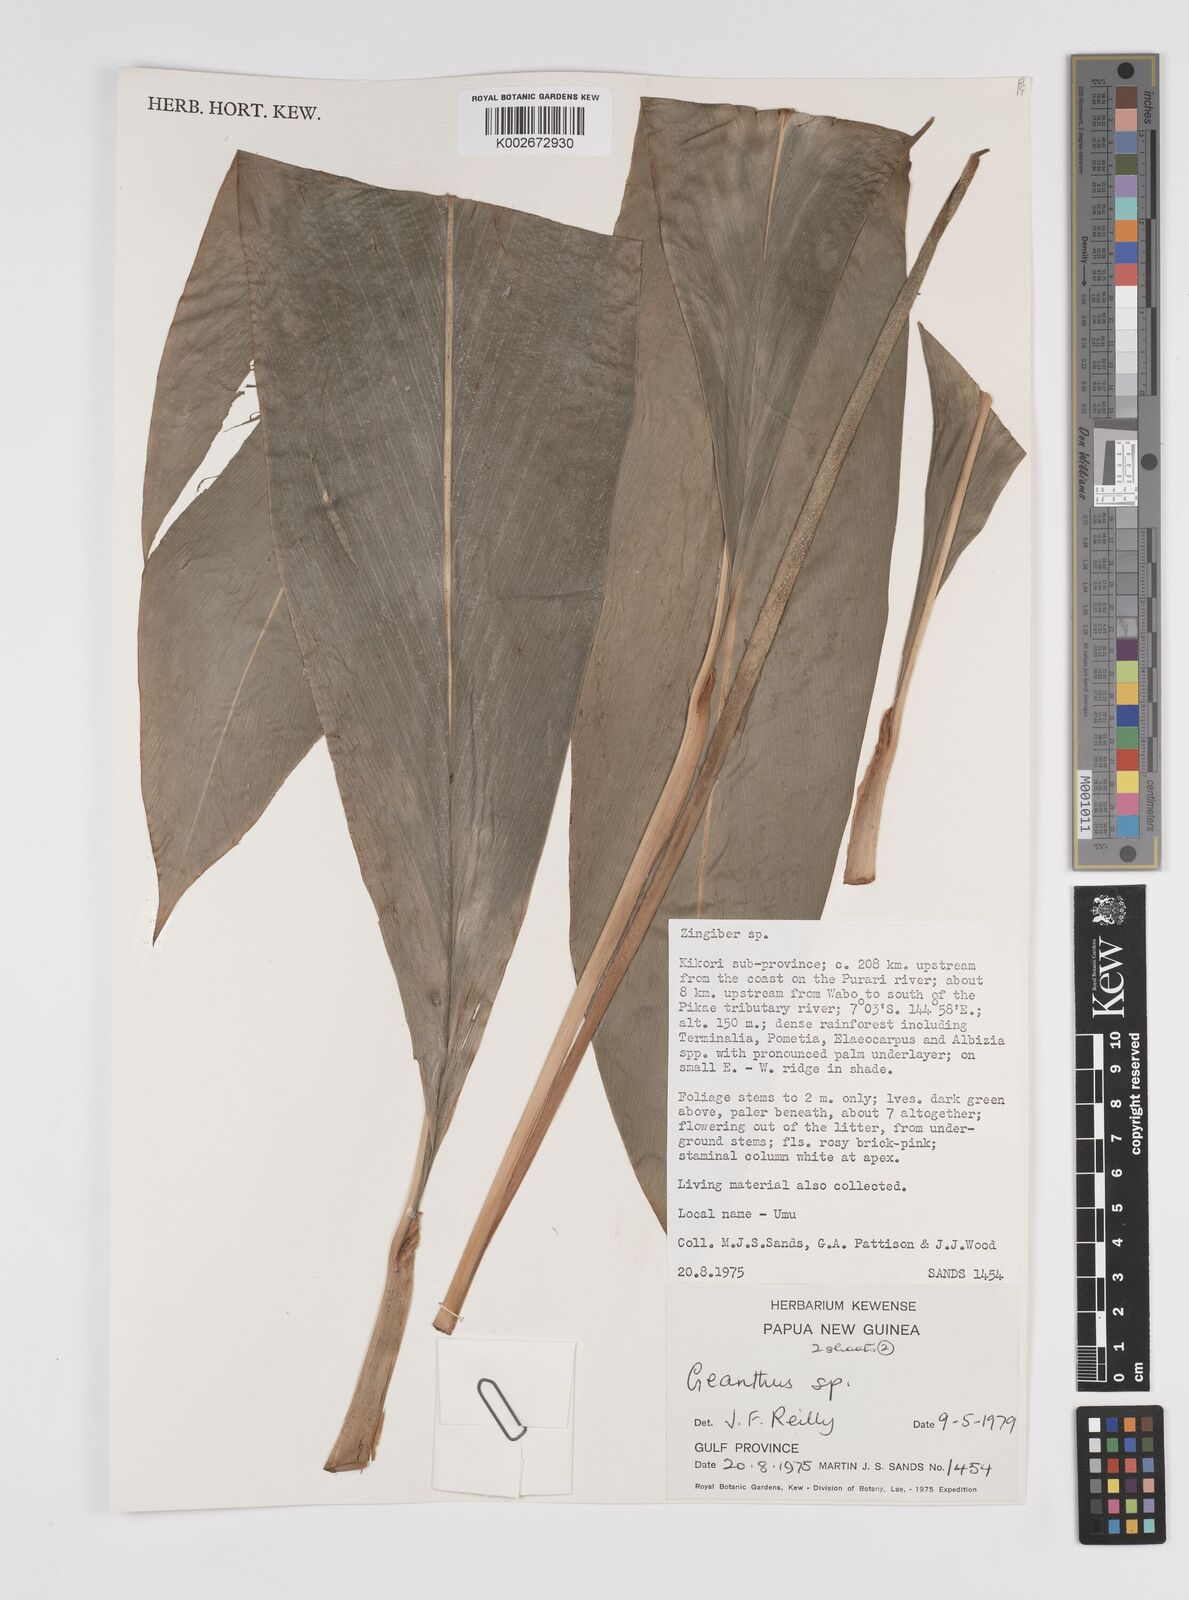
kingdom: Plantae
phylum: Tracheophyta
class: Liliopsida
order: Zingiberales
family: Zingiberaceae
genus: Etlingera
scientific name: Etlingera
